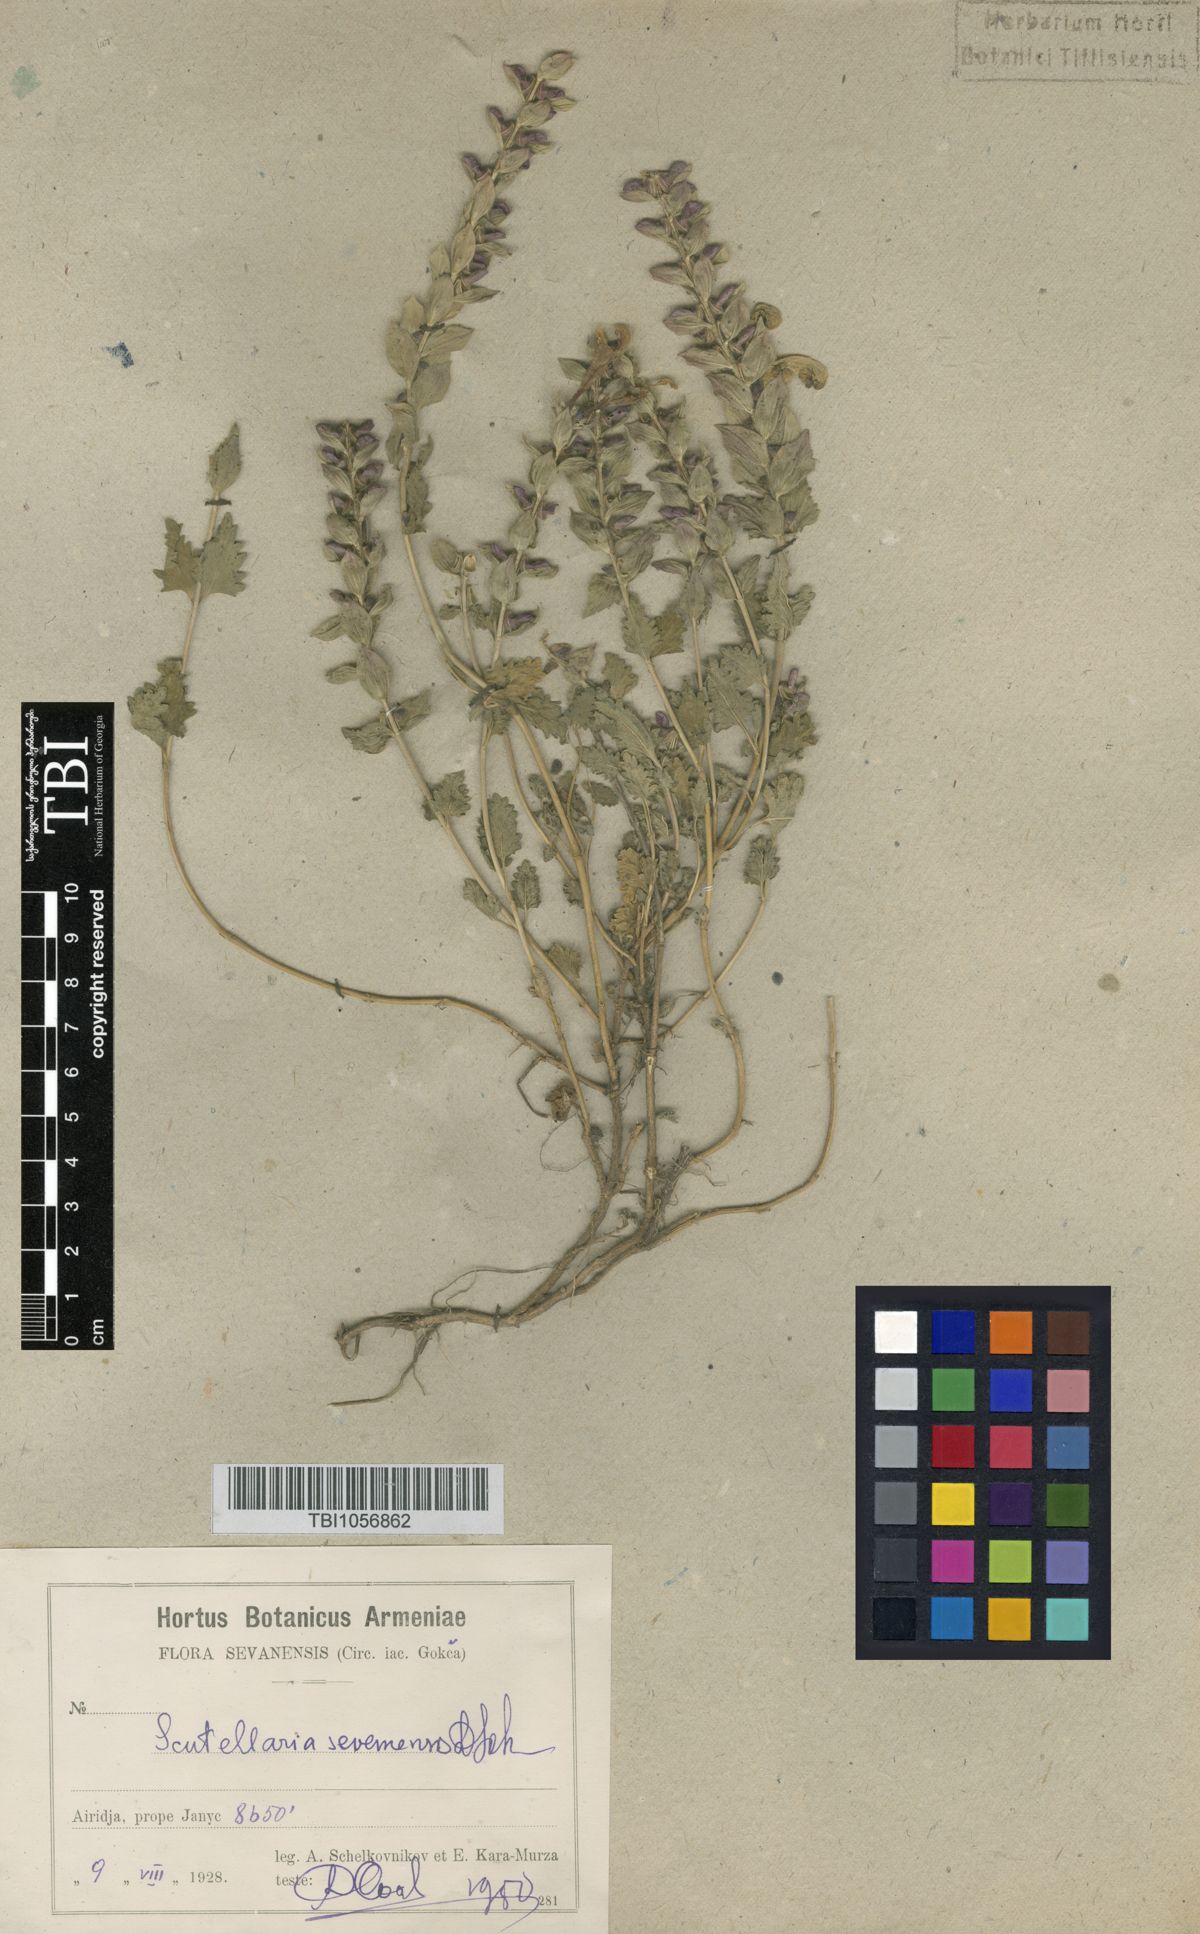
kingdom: Plantae
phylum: Tracheophyta
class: Magnoliopsida
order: Lamiales
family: Lamiaceae
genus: Scutellaria
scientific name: Scutellaria sevanensis
